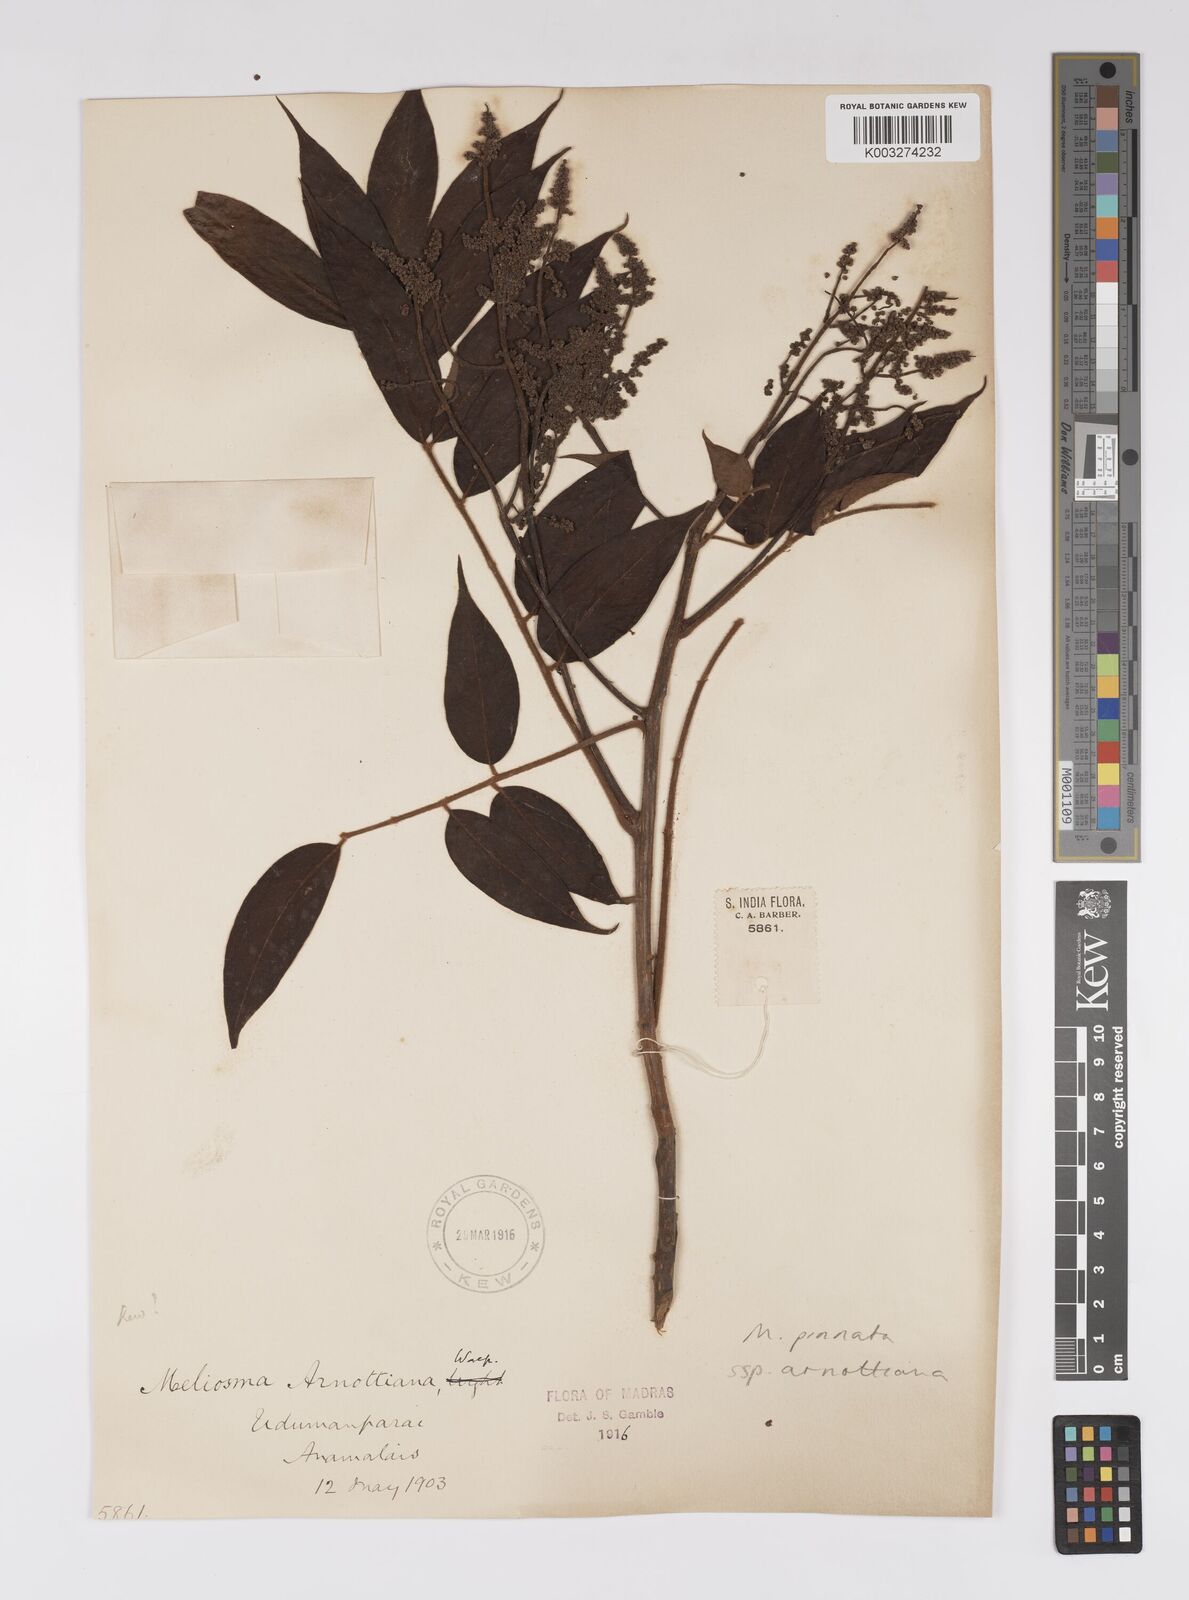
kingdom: Plantae
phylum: Tracheophyta
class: Magnoliopsida
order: Proteales
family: Sabiaceae
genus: Meliosma
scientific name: Meliosma rhoifolia
